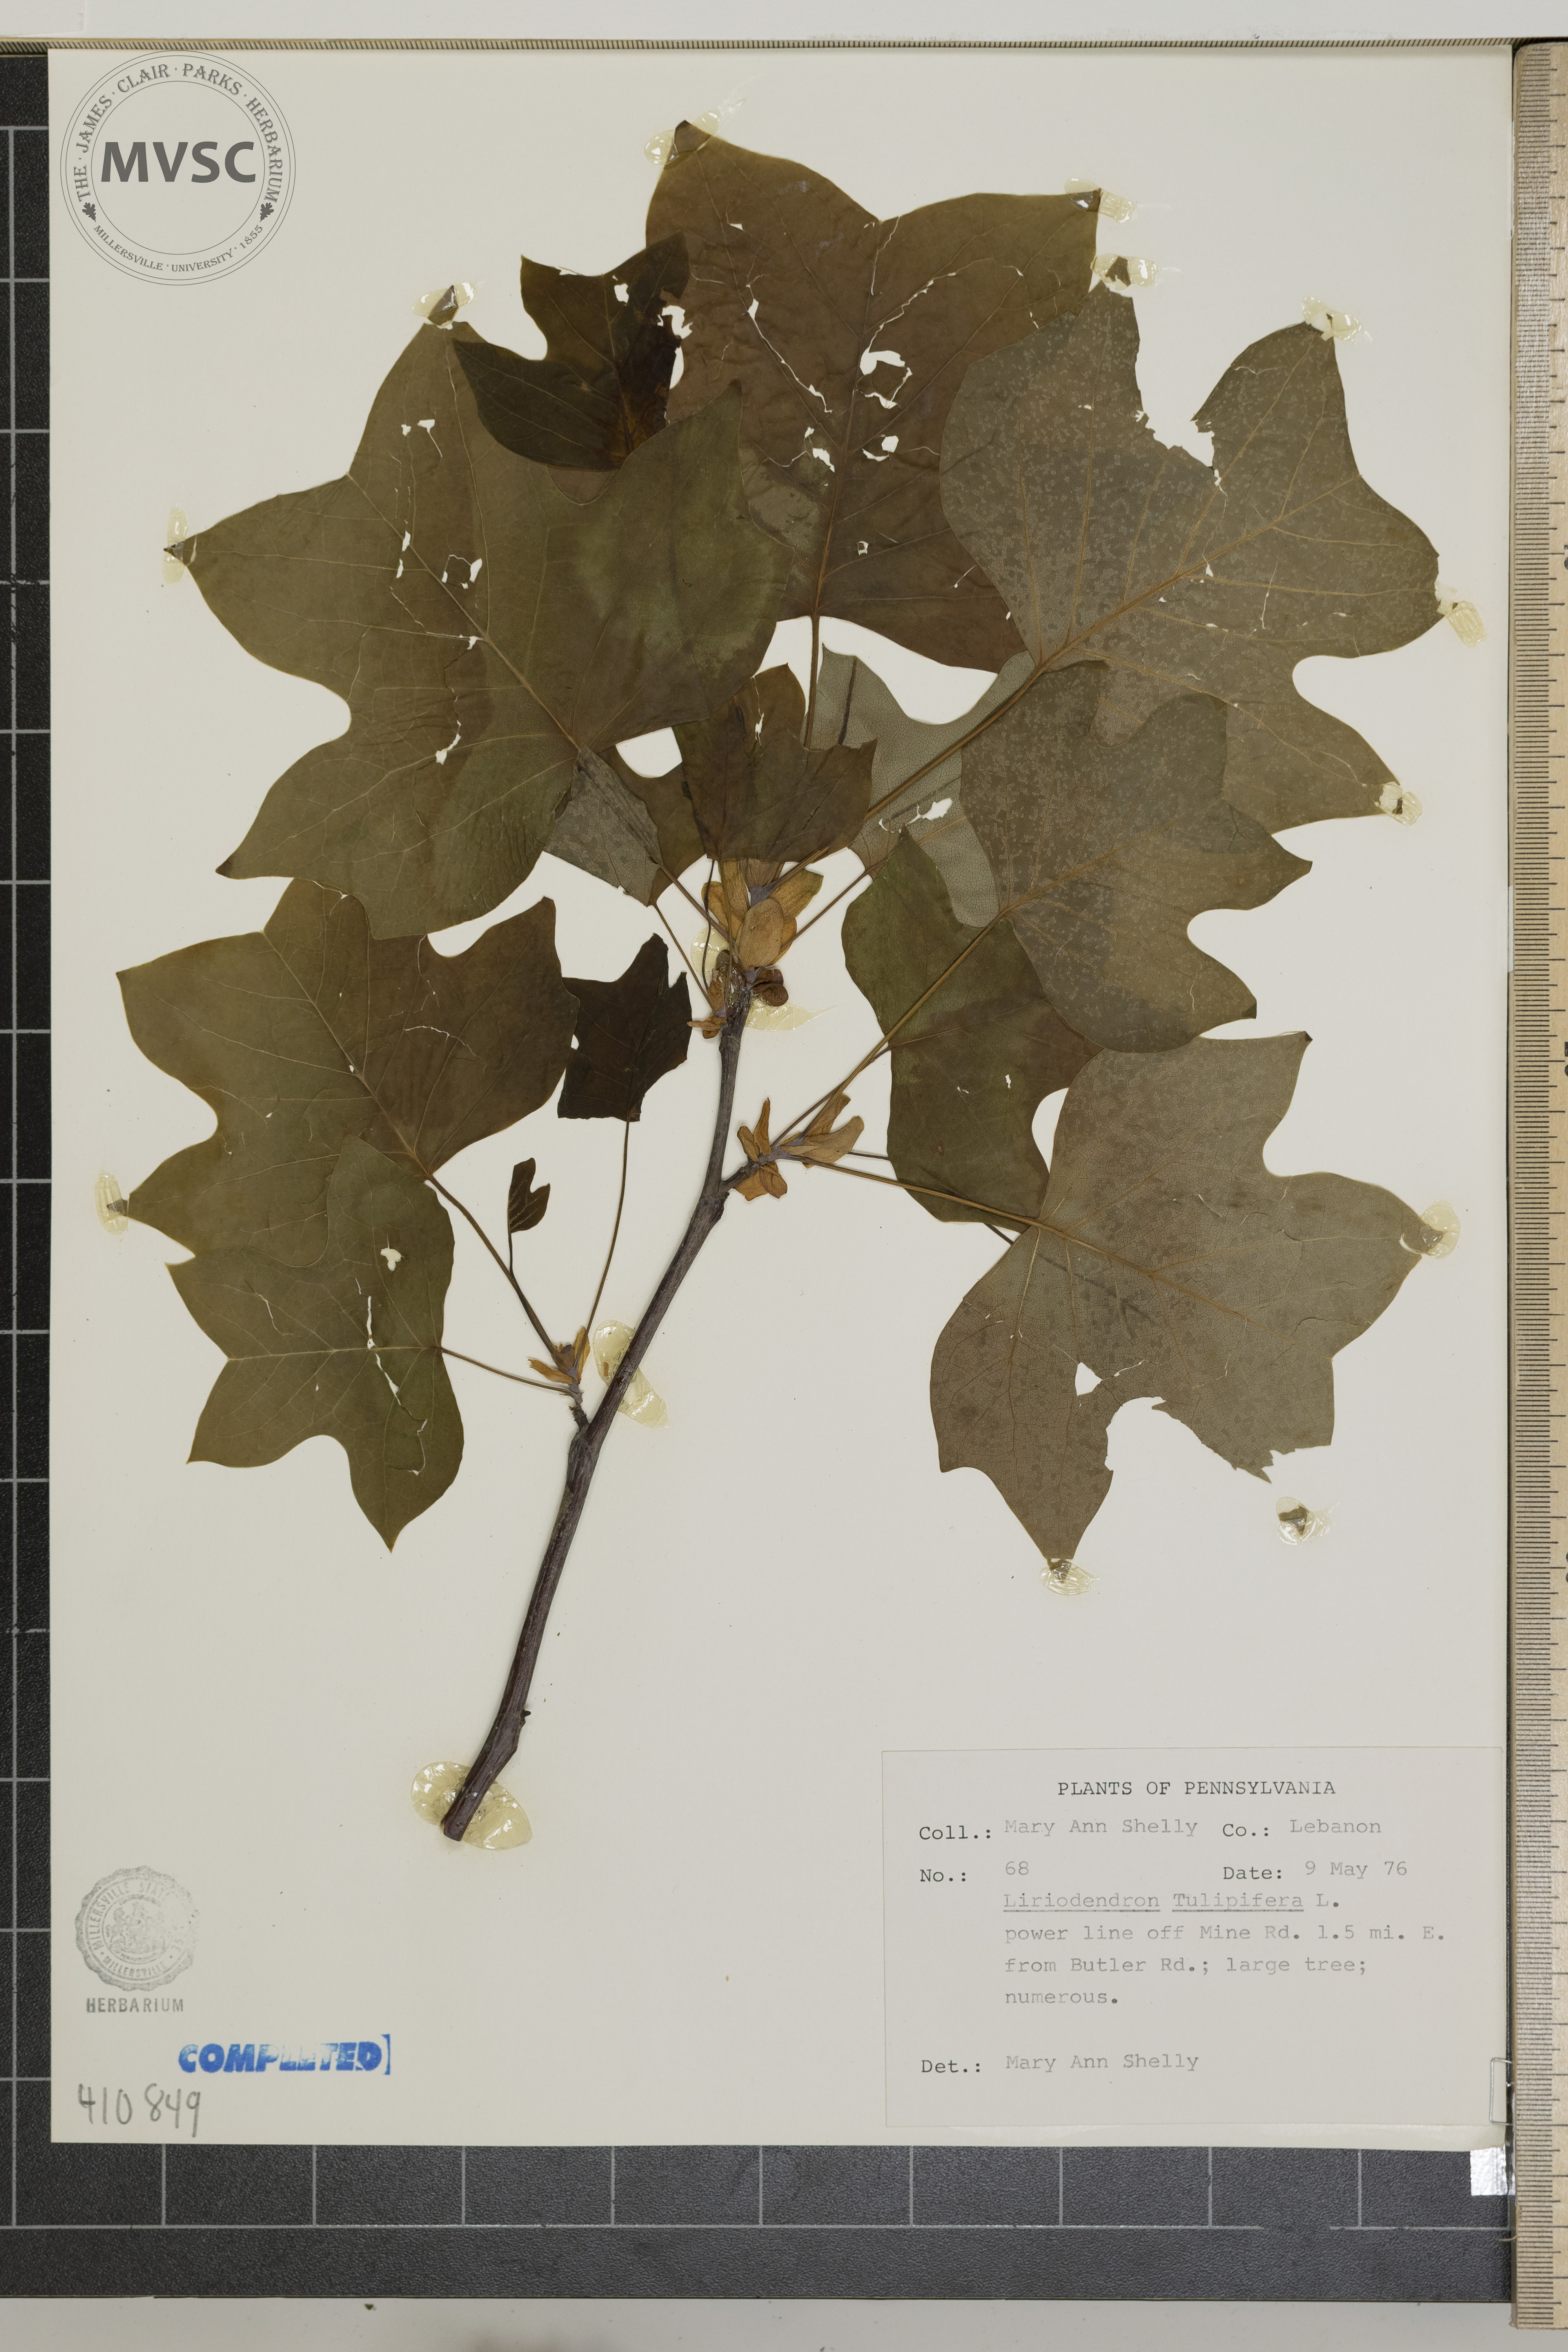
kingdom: Plantae
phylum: Tracheophyta
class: Magnoliopsida
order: Magnoliales
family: Magnoliaceae
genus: Liriodendron
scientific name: Liriodendron tulipifera
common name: Tulip tree
